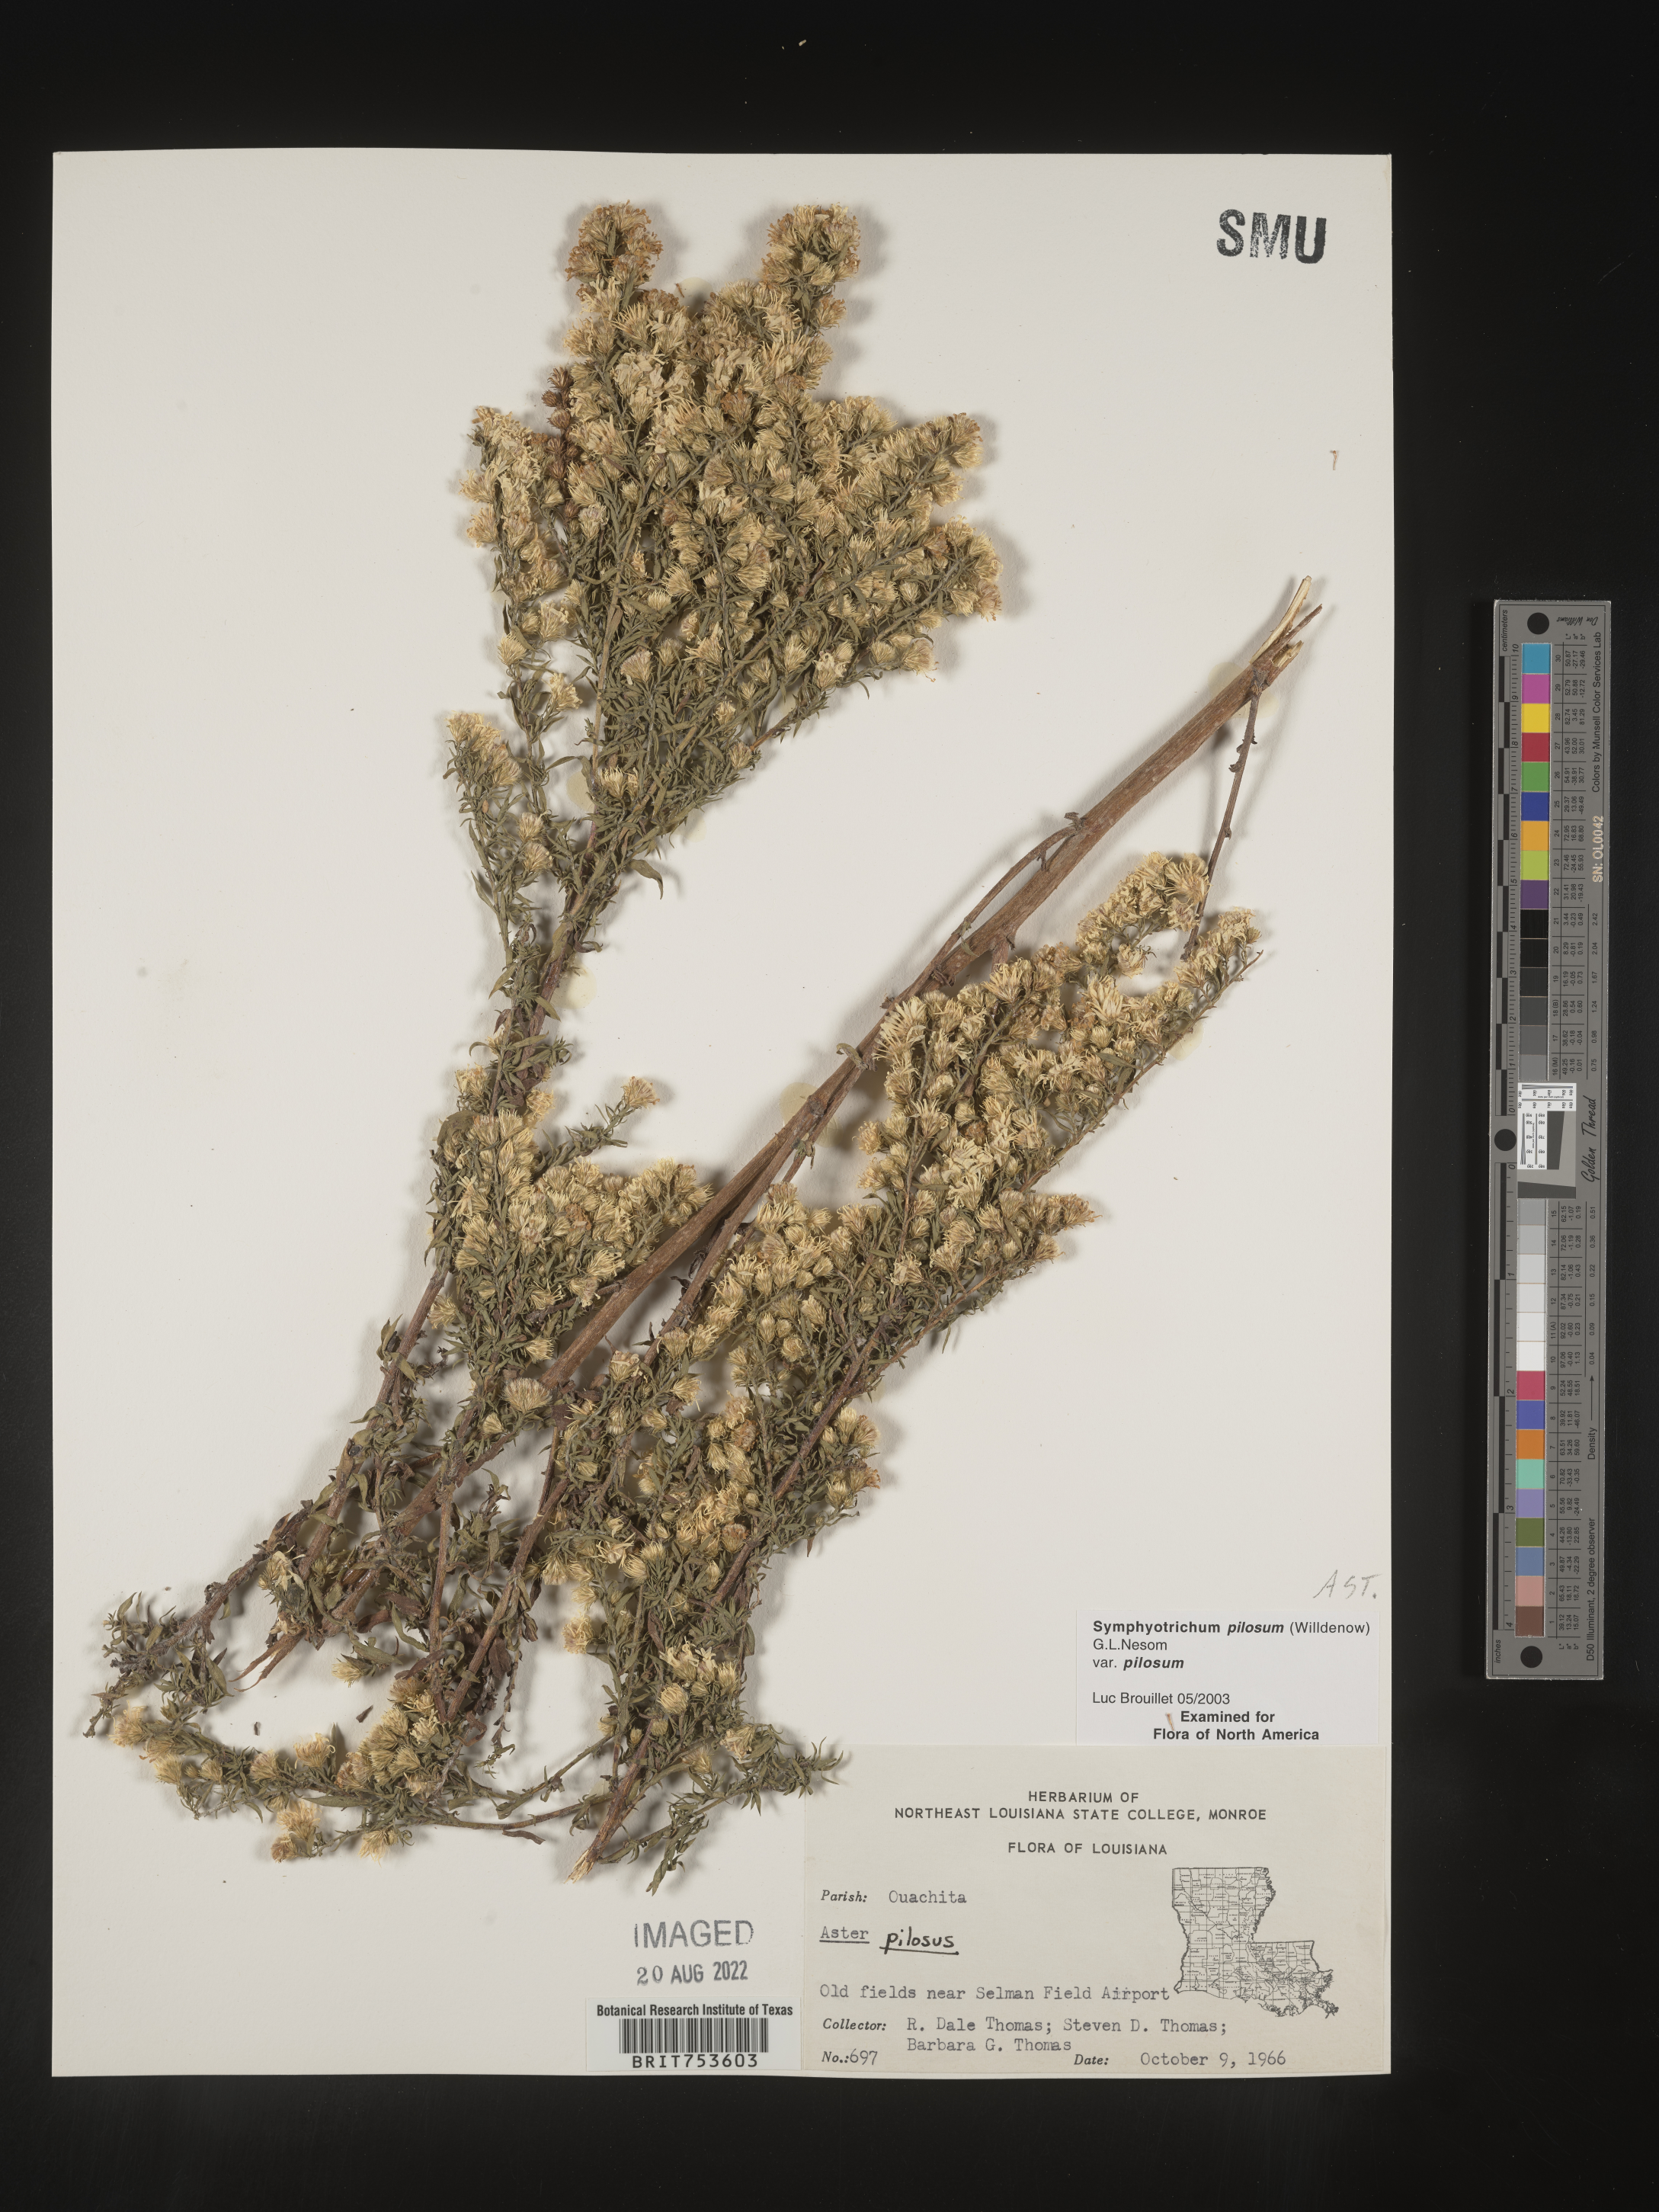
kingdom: Plantae
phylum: Tracheophyta
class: Magnoliopsida
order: Asterales
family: Asteraceae
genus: Symphyotrichum
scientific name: Symphyotrichum pilosum
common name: Awl aster
